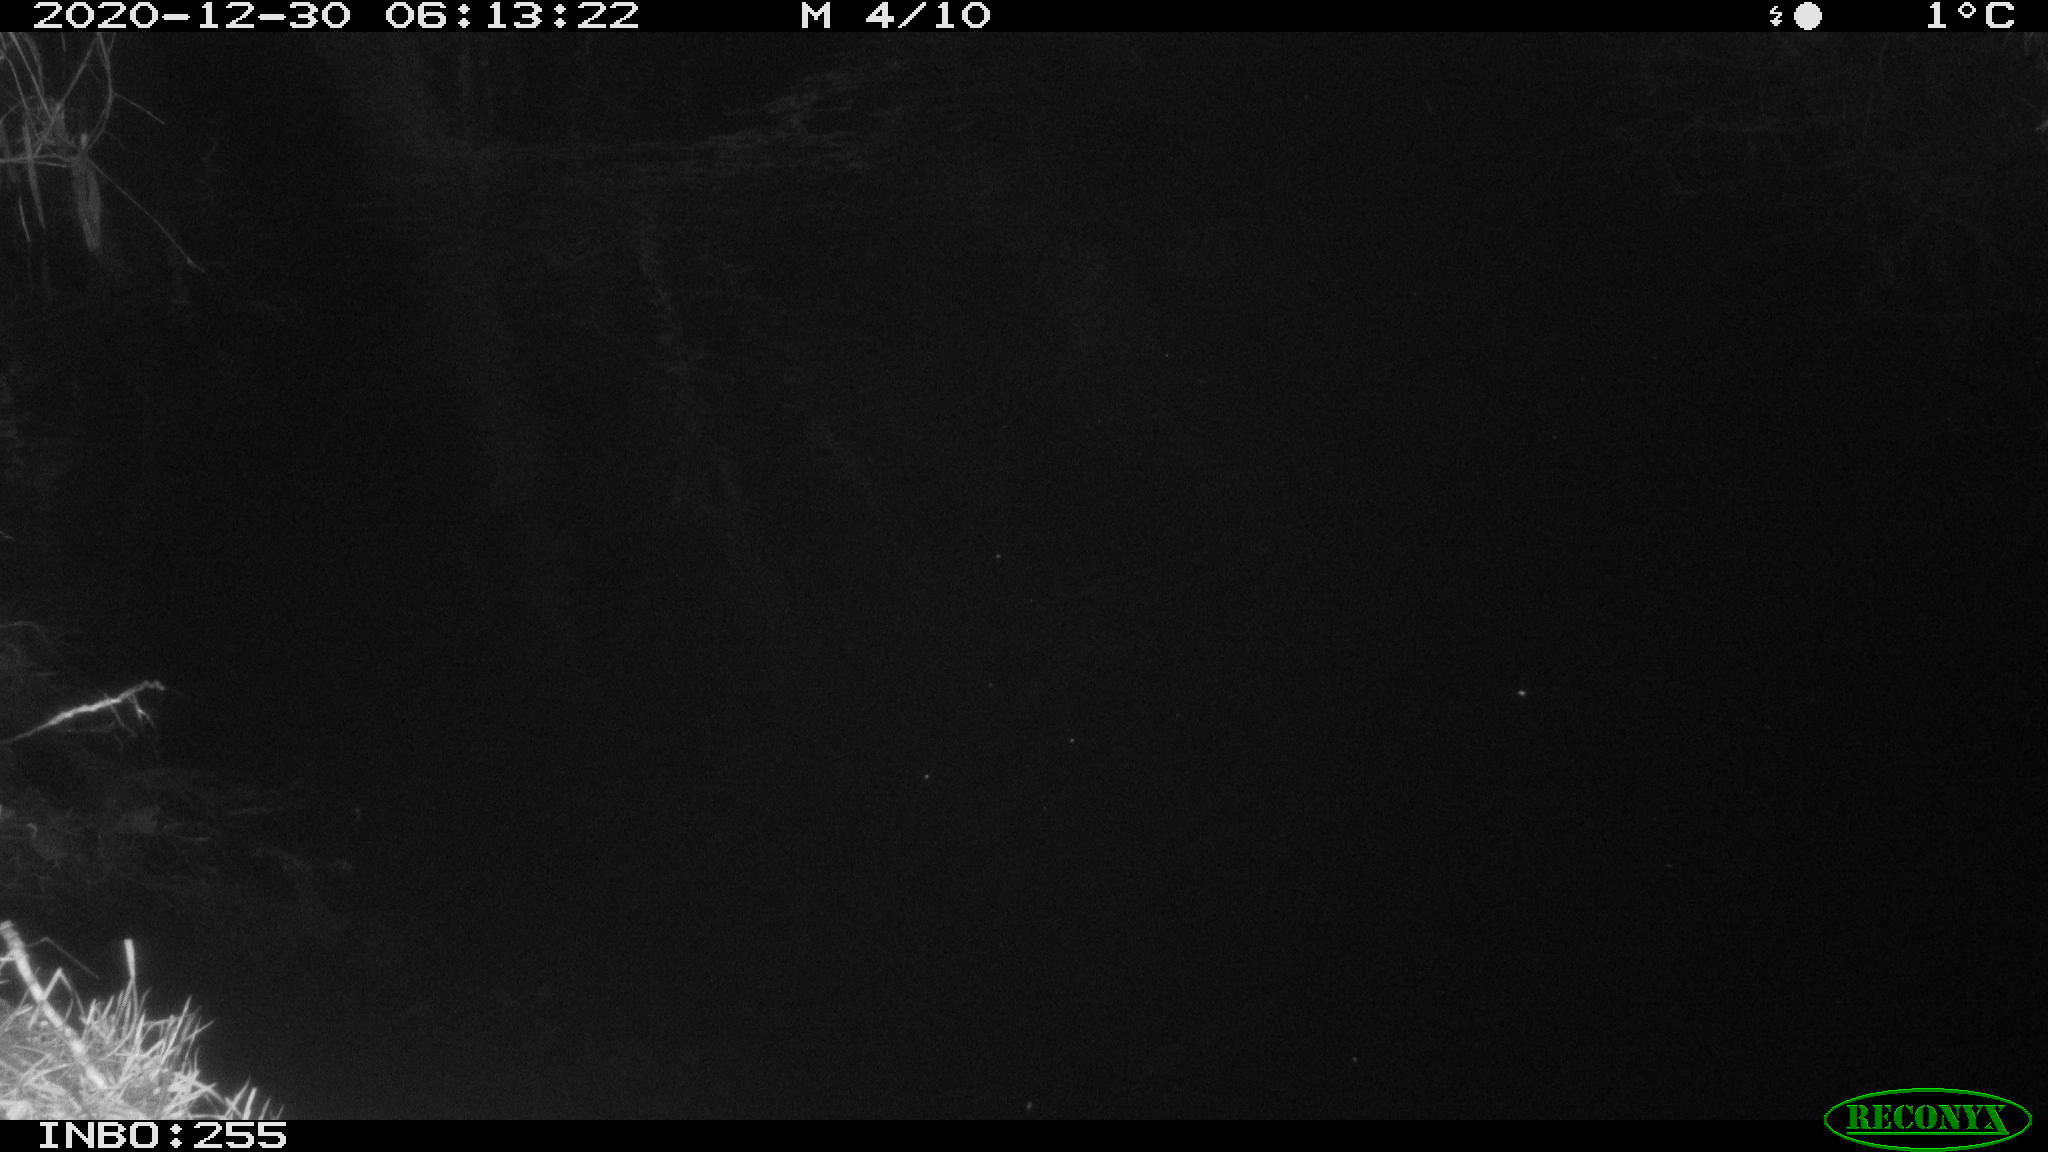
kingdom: Animalia
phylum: Chordata
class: Mammalia
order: Rodentia
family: Muridae
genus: Rattus
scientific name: Rattus norvegicus
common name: Brown rat
